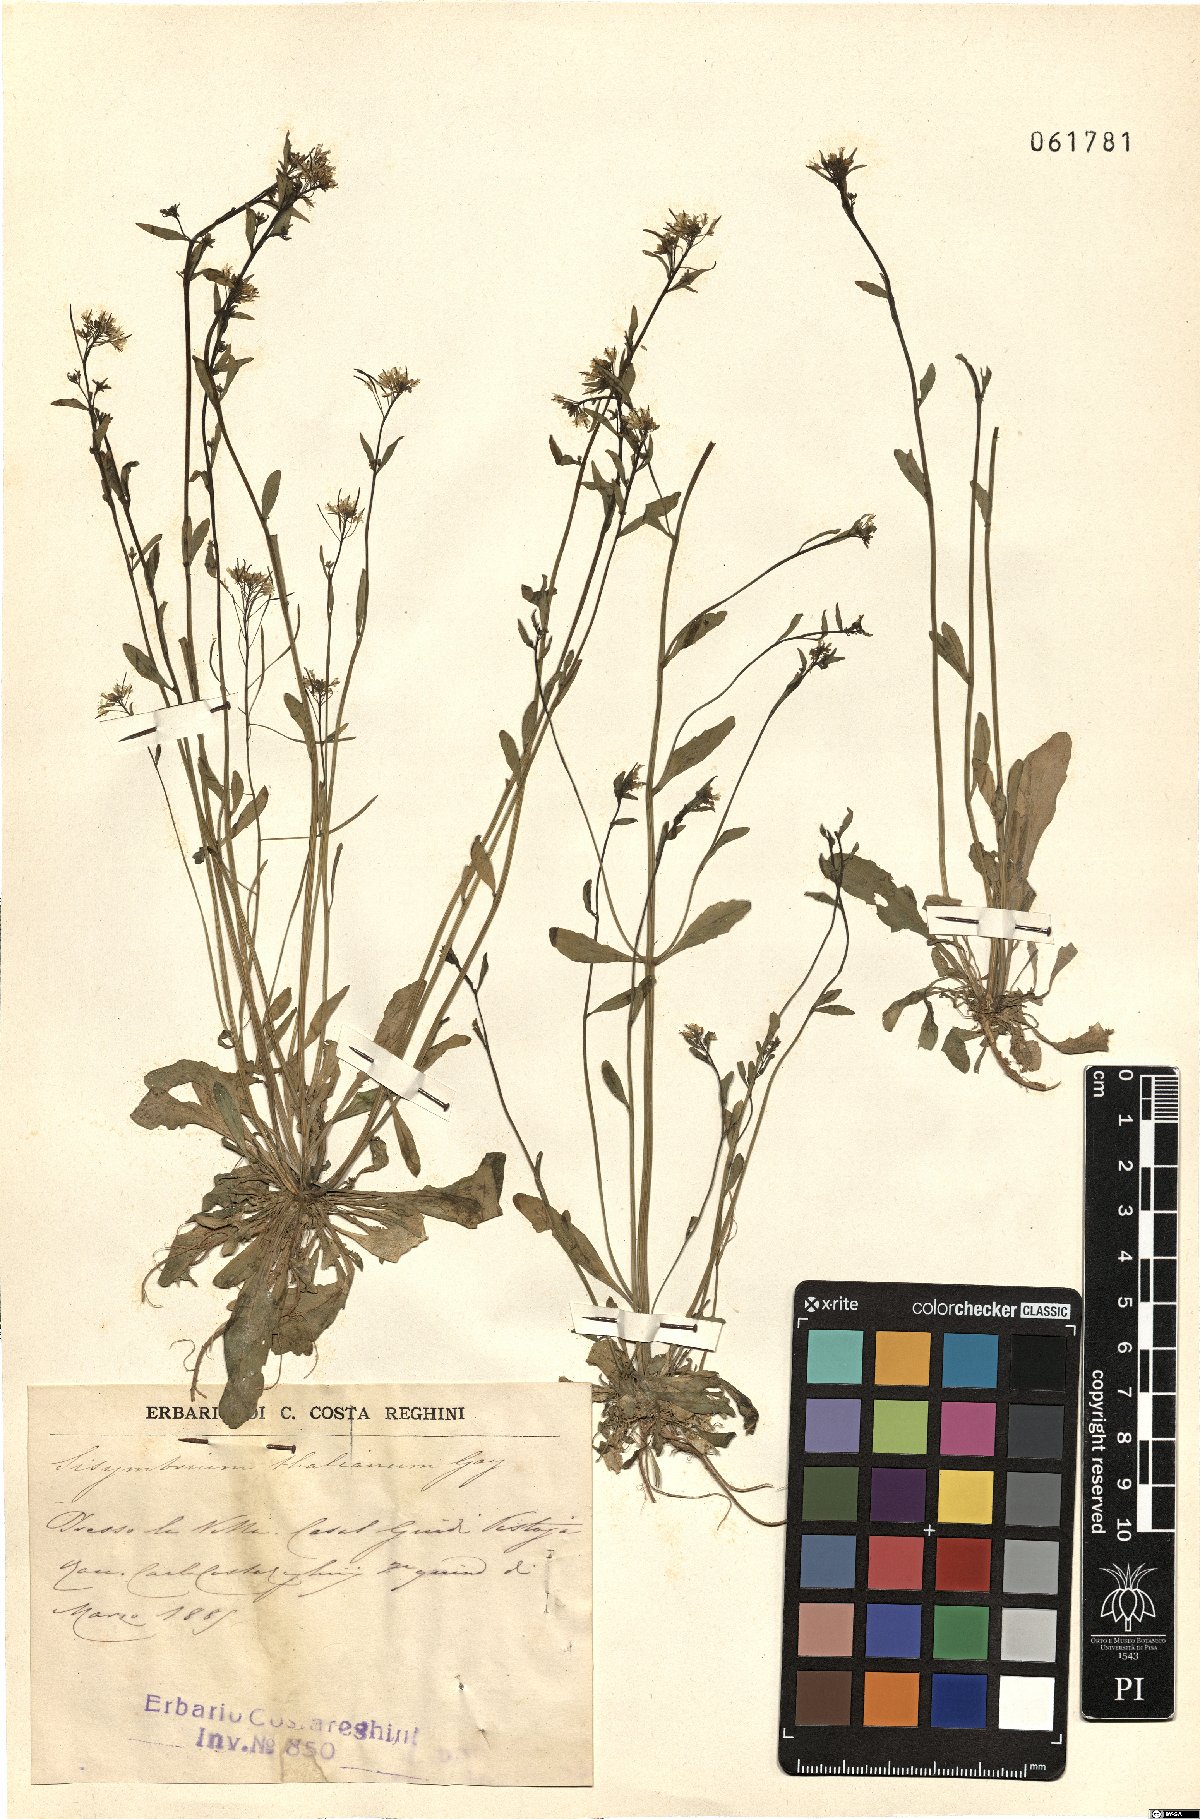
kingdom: Plantae
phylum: Tracheophyta
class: Magnoliopsida
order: Brassicales
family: Brassicaceae
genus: Arabidopsis
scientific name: Arabidopsis thaliana
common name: Thale cress
